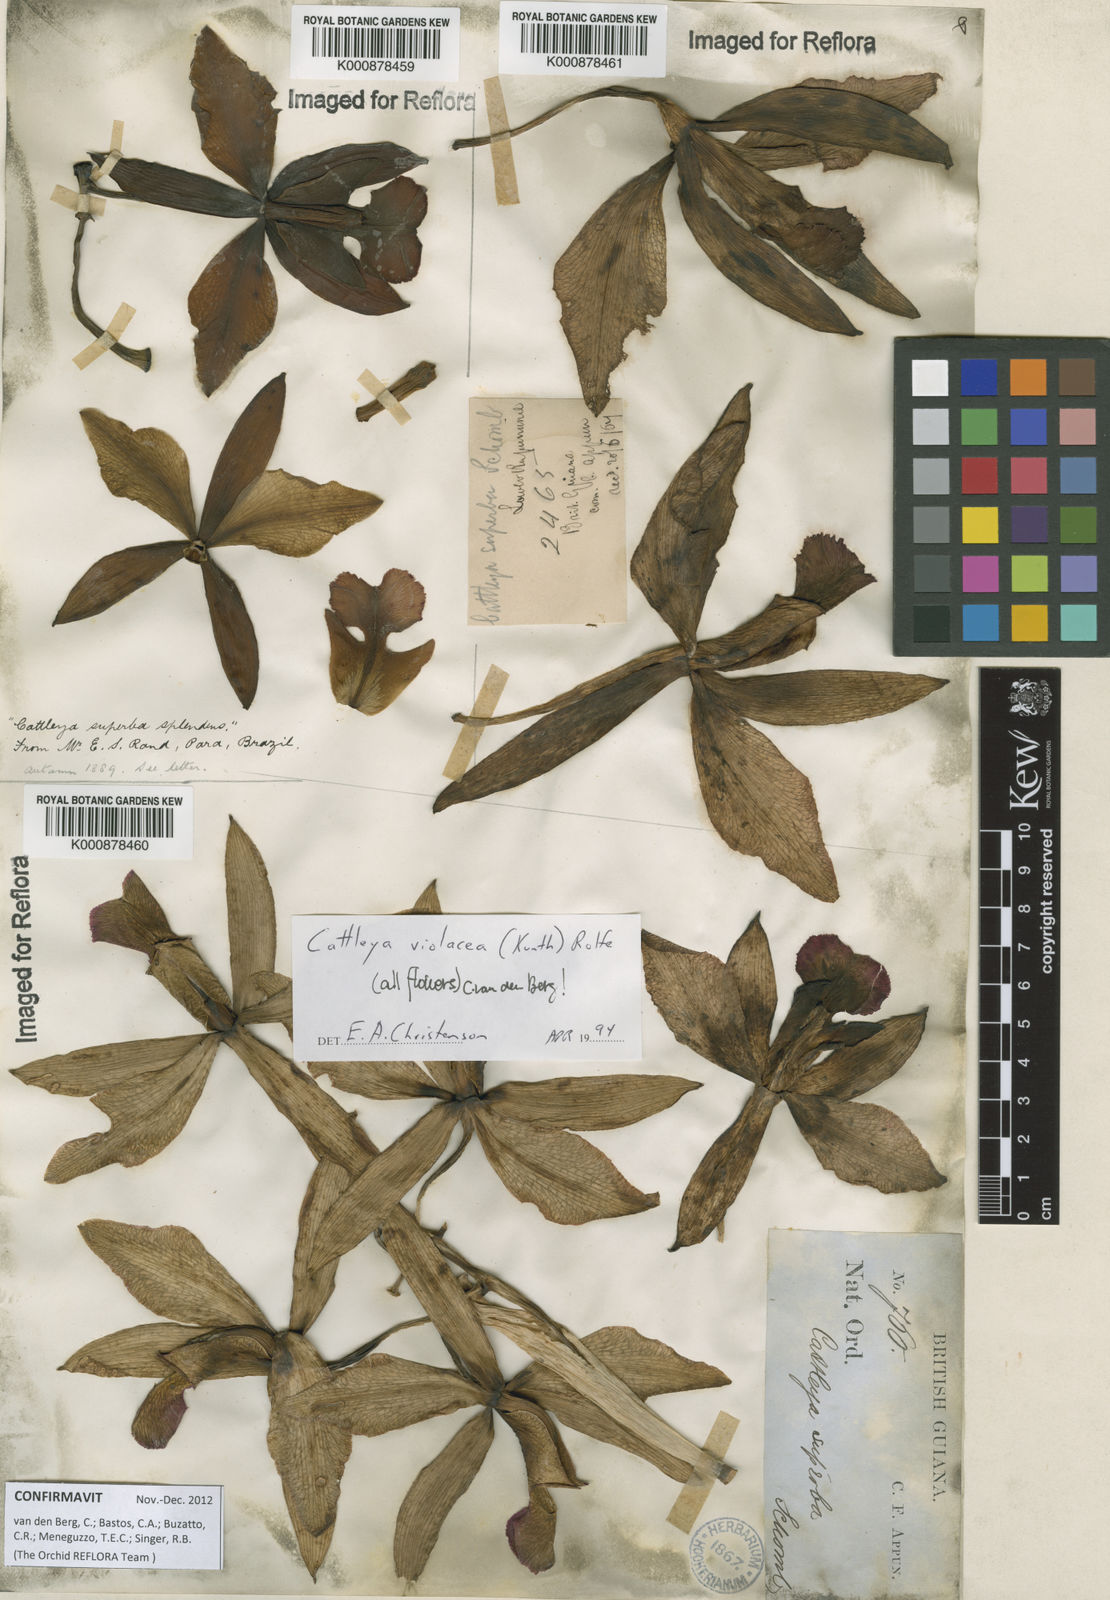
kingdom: Plantae
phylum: Tracheophyta
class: Liliopsida
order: Asparagales
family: Orchidaceae
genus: Cattleya
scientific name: Cattleya
